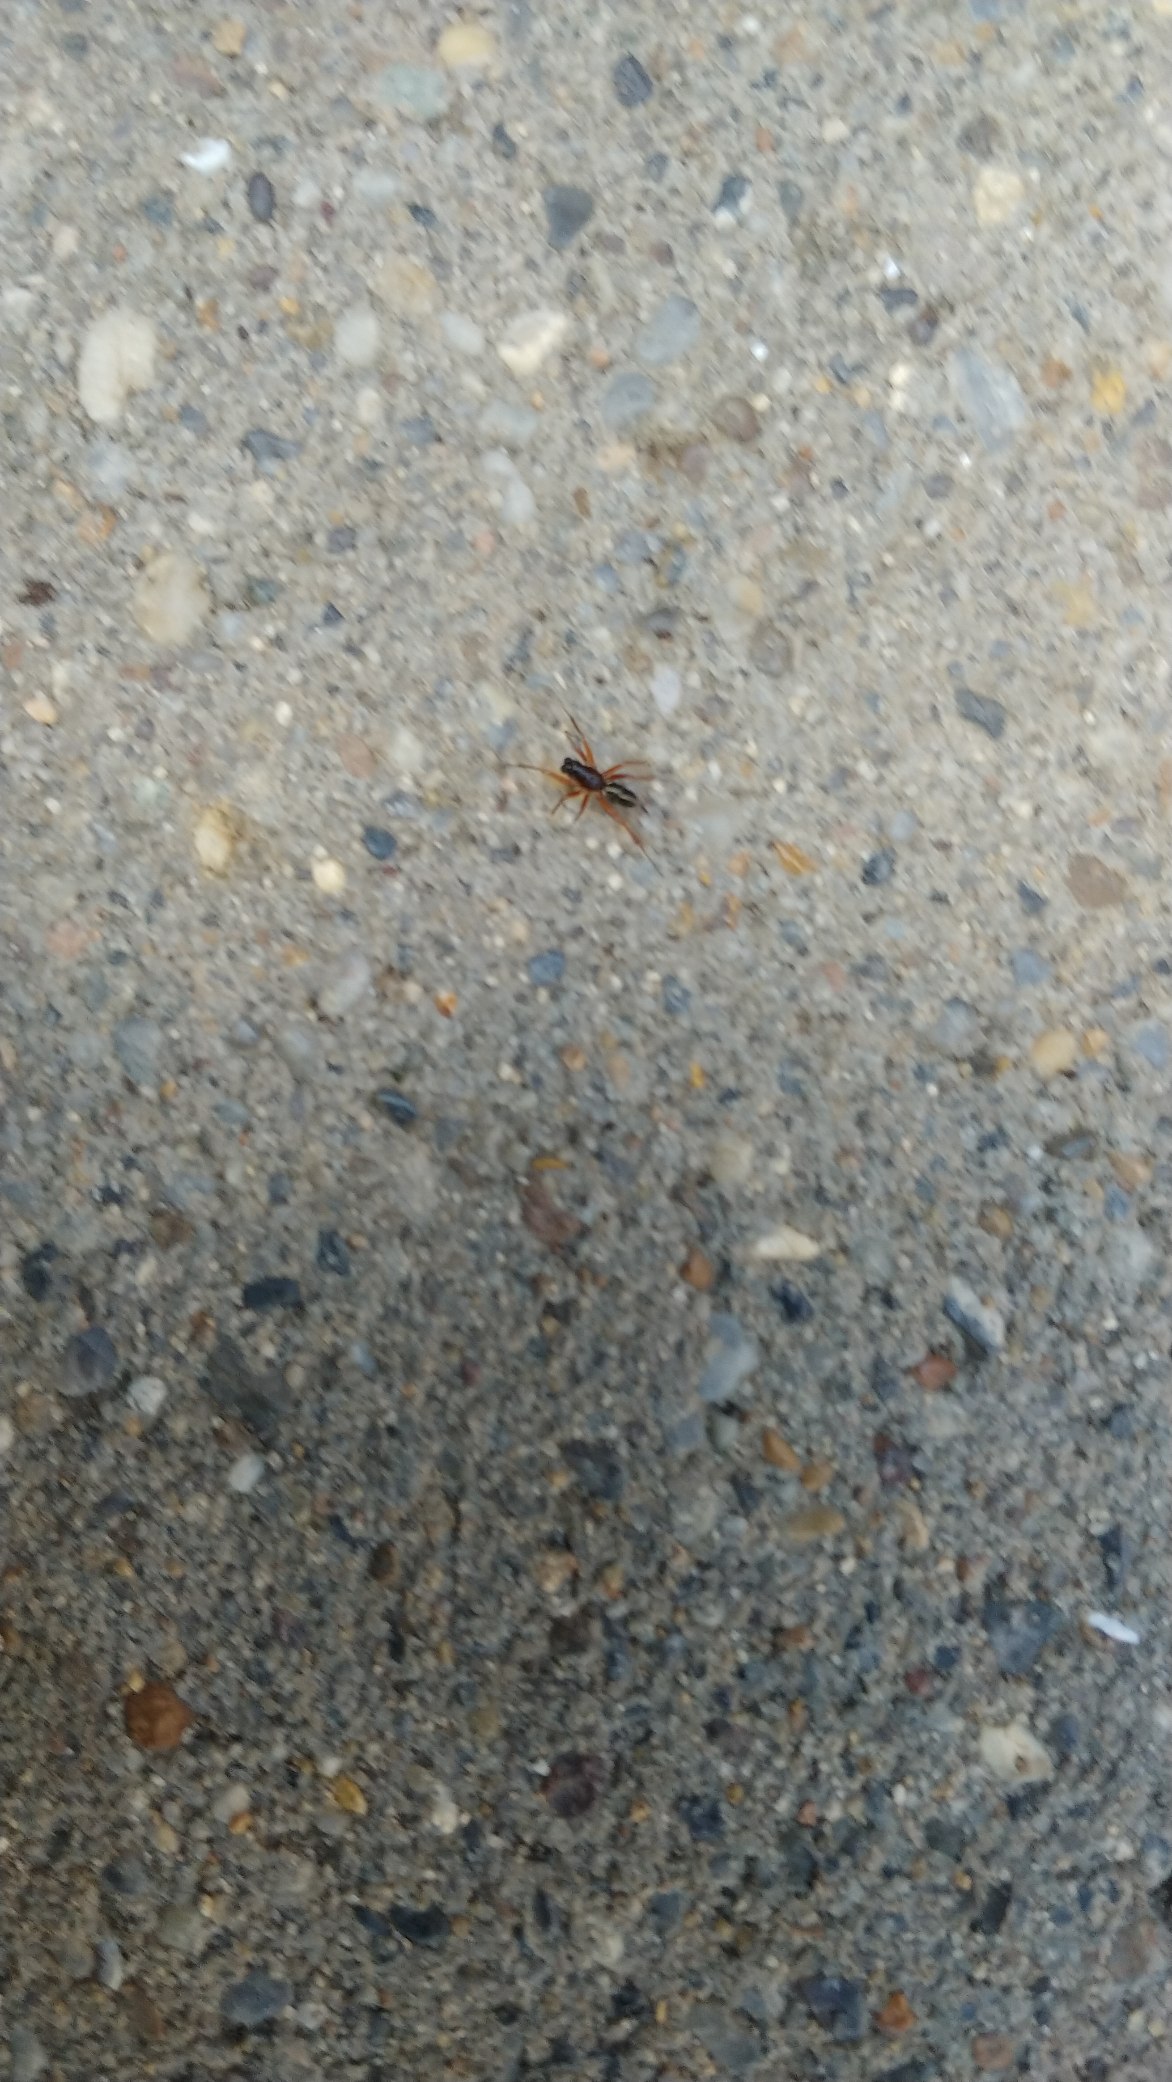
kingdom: Animalia
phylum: Arthropoda
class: Arachnida
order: Araneae
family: Linyphiidae
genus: Neriene
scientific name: Neriene clathrata
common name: Kratbaldakinspinder
